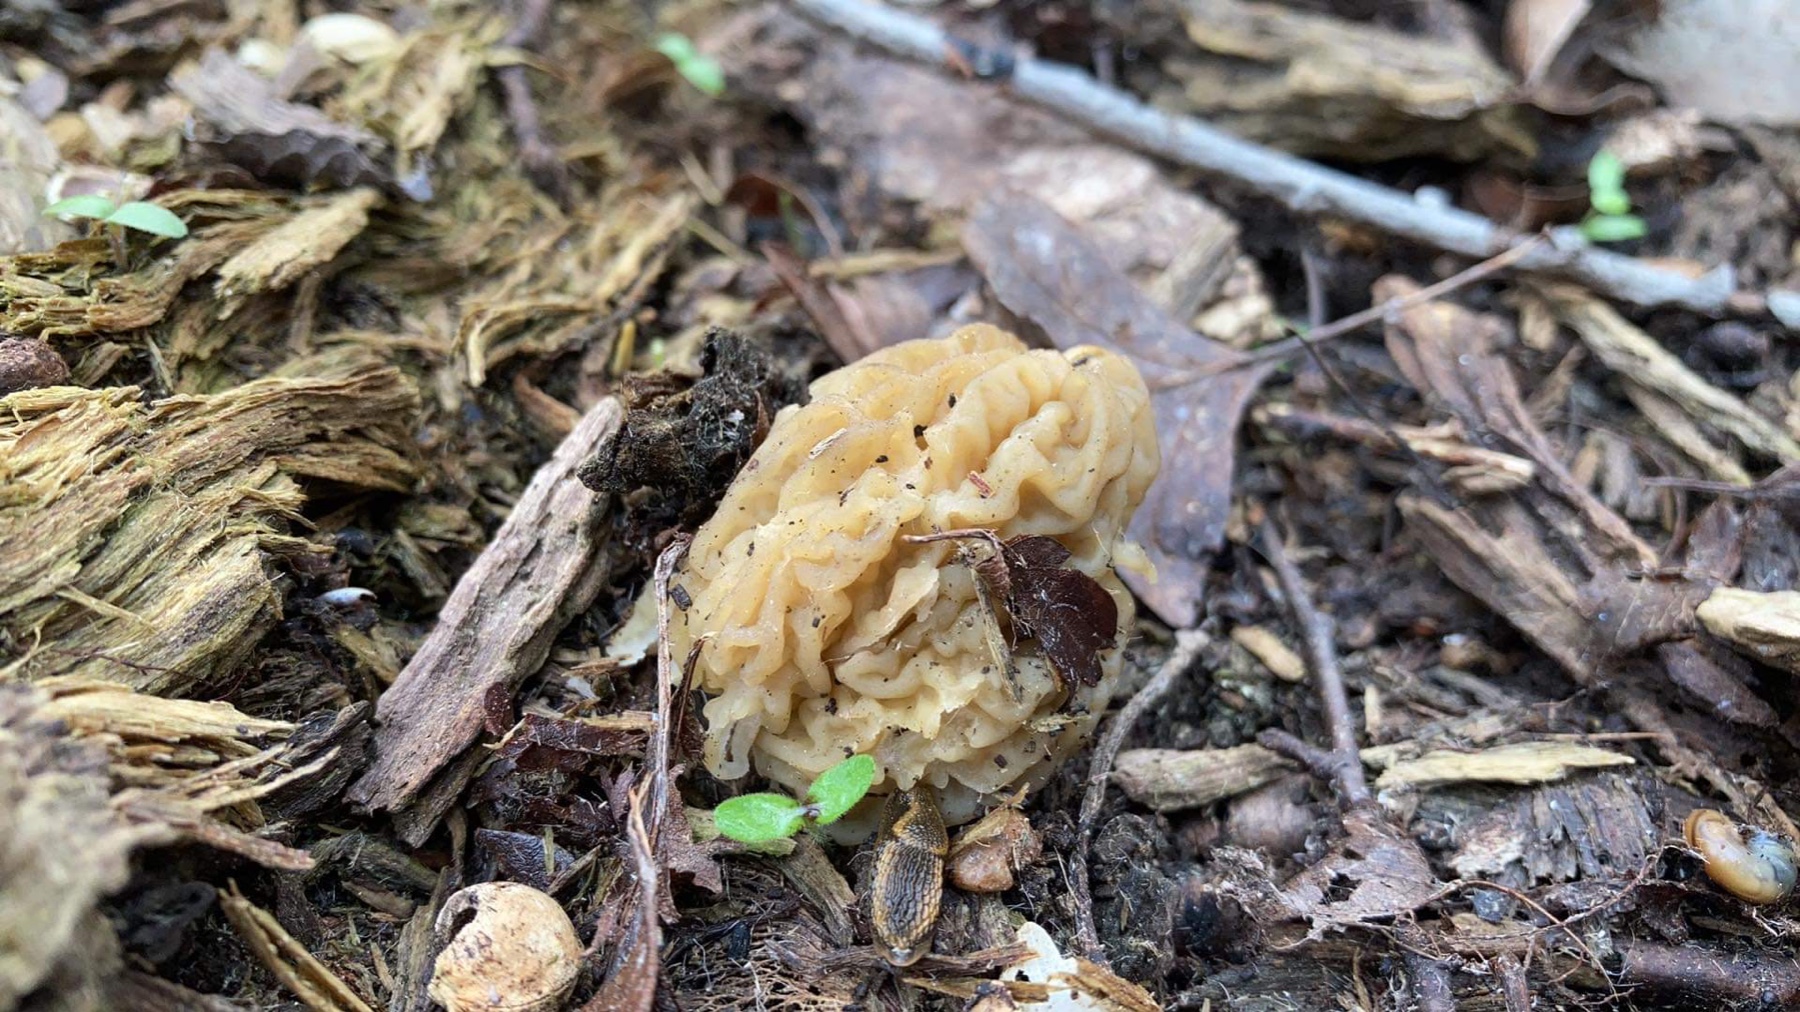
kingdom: Fungi
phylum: Ascomycota
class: Pezizomycetes
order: Pezizales
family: Morchellaceae
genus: Verpa
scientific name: Verpa bohemica
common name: rynket klokkemorkel
